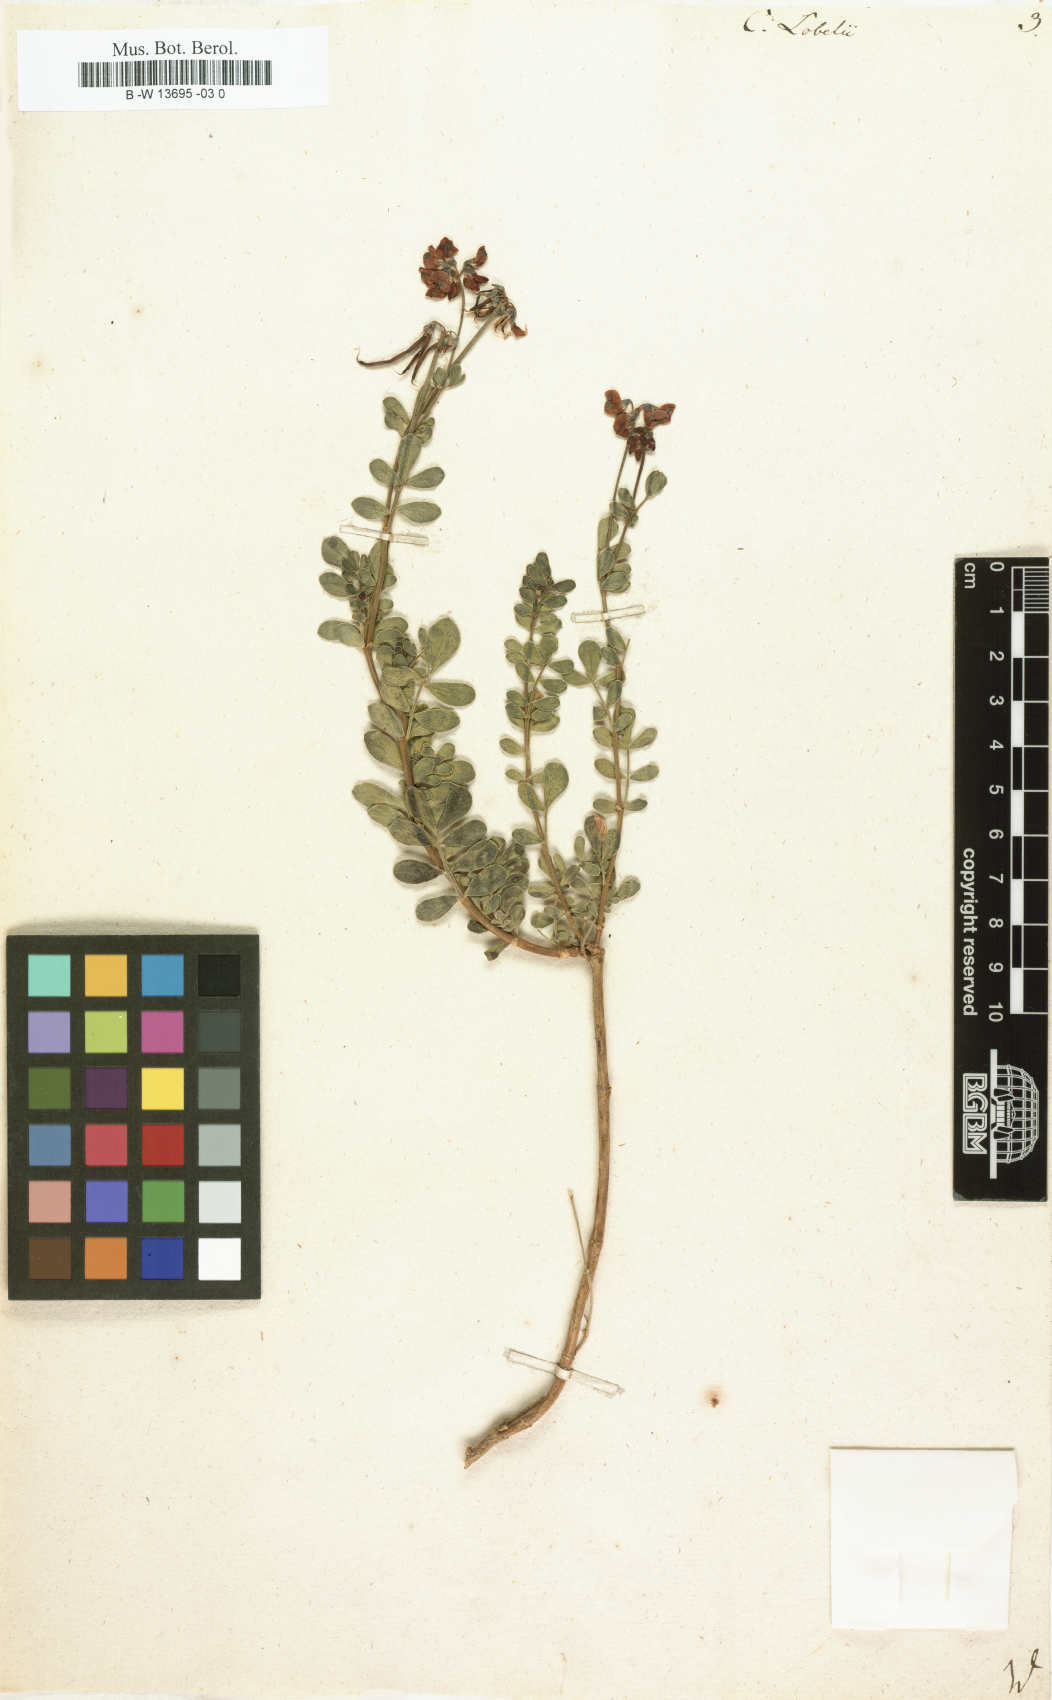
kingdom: Plantae
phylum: Tracheophyta
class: Magnoliopsida
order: Fabales
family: Fabaceae
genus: Coronilla
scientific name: Coronilla
